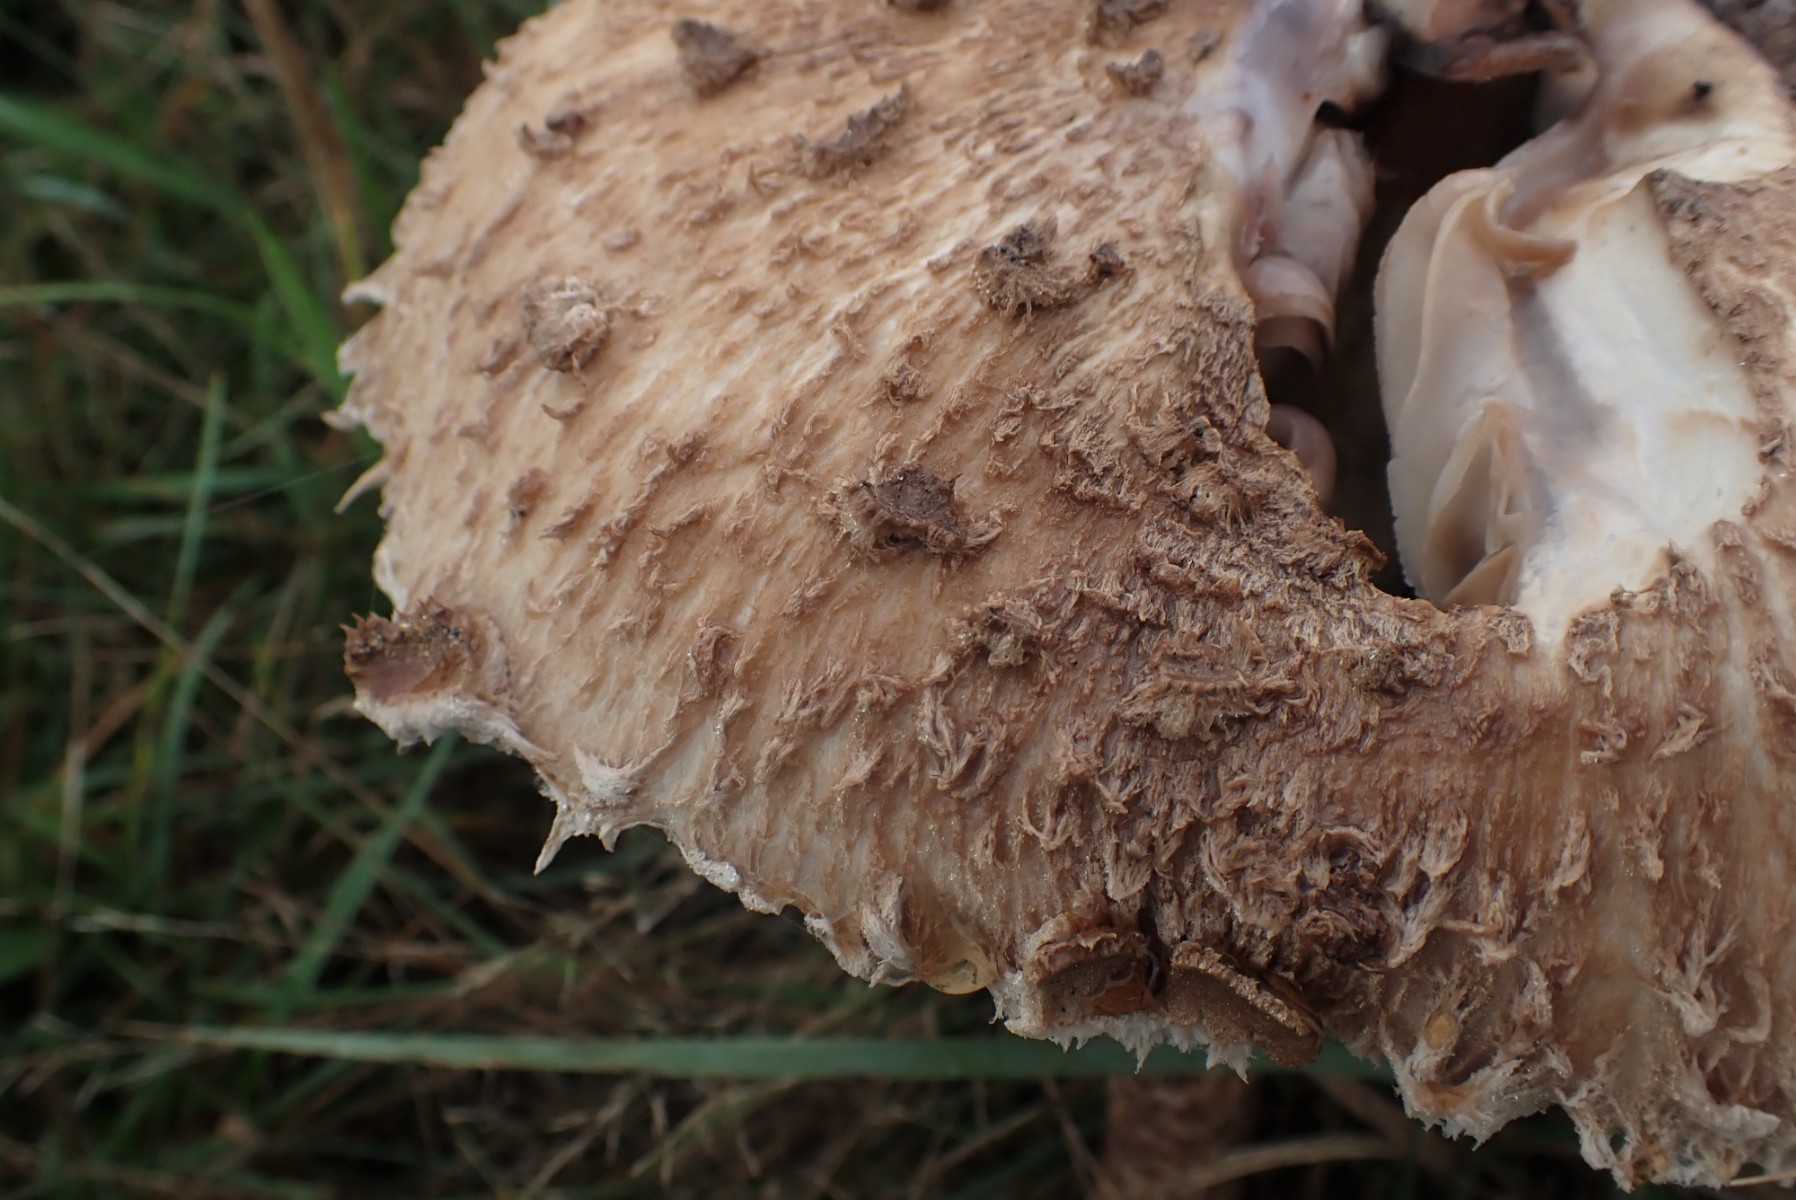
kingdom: Fungi
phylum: Basidiomycota
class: Agaricomycetes
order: Agaricales
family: Agaricaceae
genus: Macrolepiota
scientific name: Macrolepiota procera
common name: stor kæmpeparasolhat
